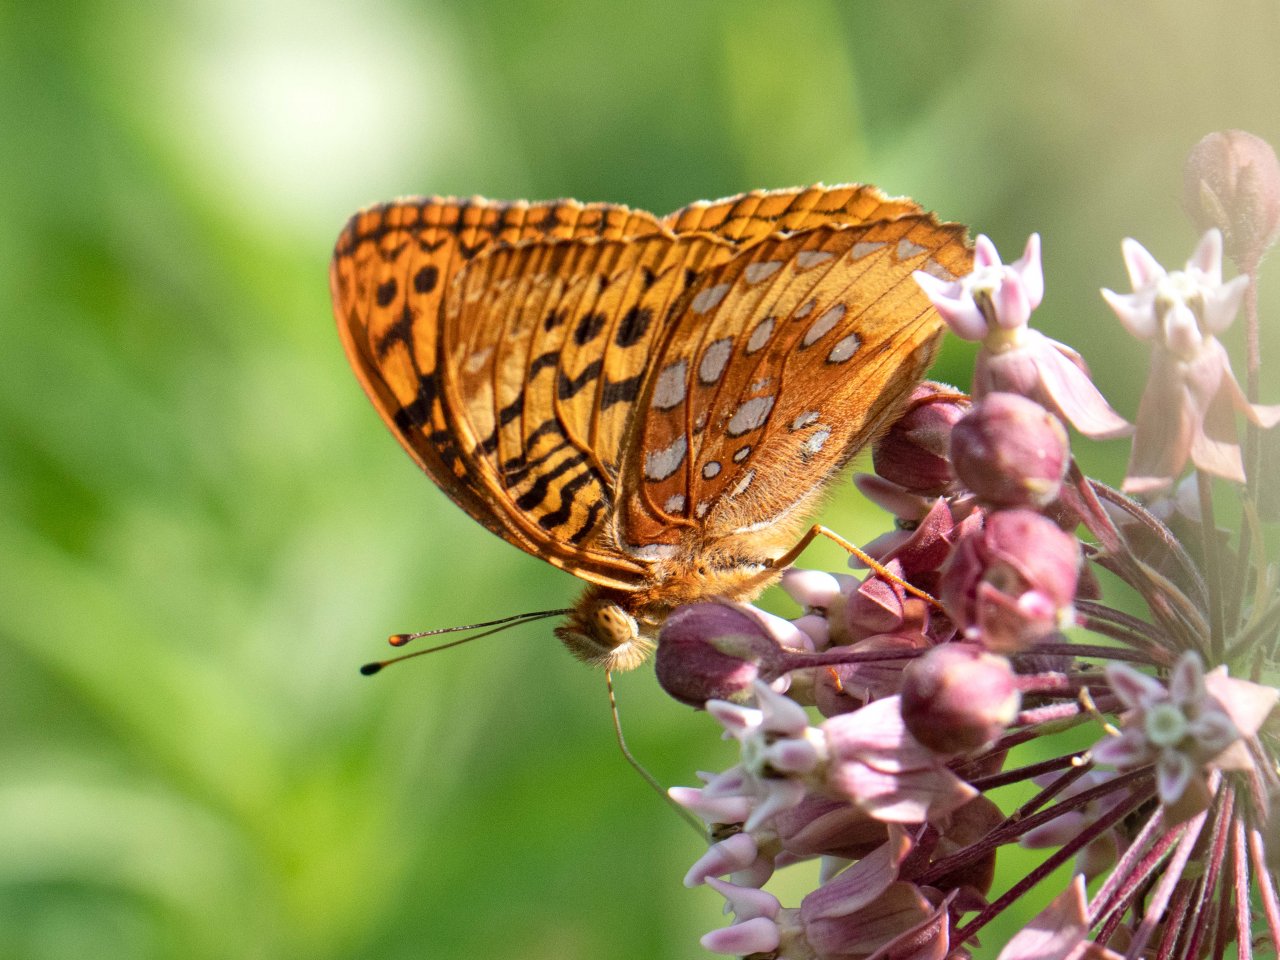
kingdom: Animalia
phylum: Arthropoda
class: Insecta
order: Lepidoptera
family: Nymphalidae
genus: Speyeria
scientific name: Speyeria cybele
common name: Great Spangled Fritillary
